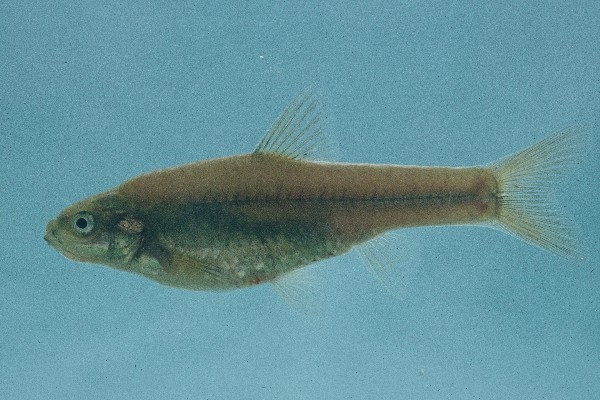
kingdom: Animalia
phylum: Chordata
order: Cypriniformes
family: Cyprinidae
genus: Enteromius
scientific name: Enteromius amatolicus
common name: Amatola barb
